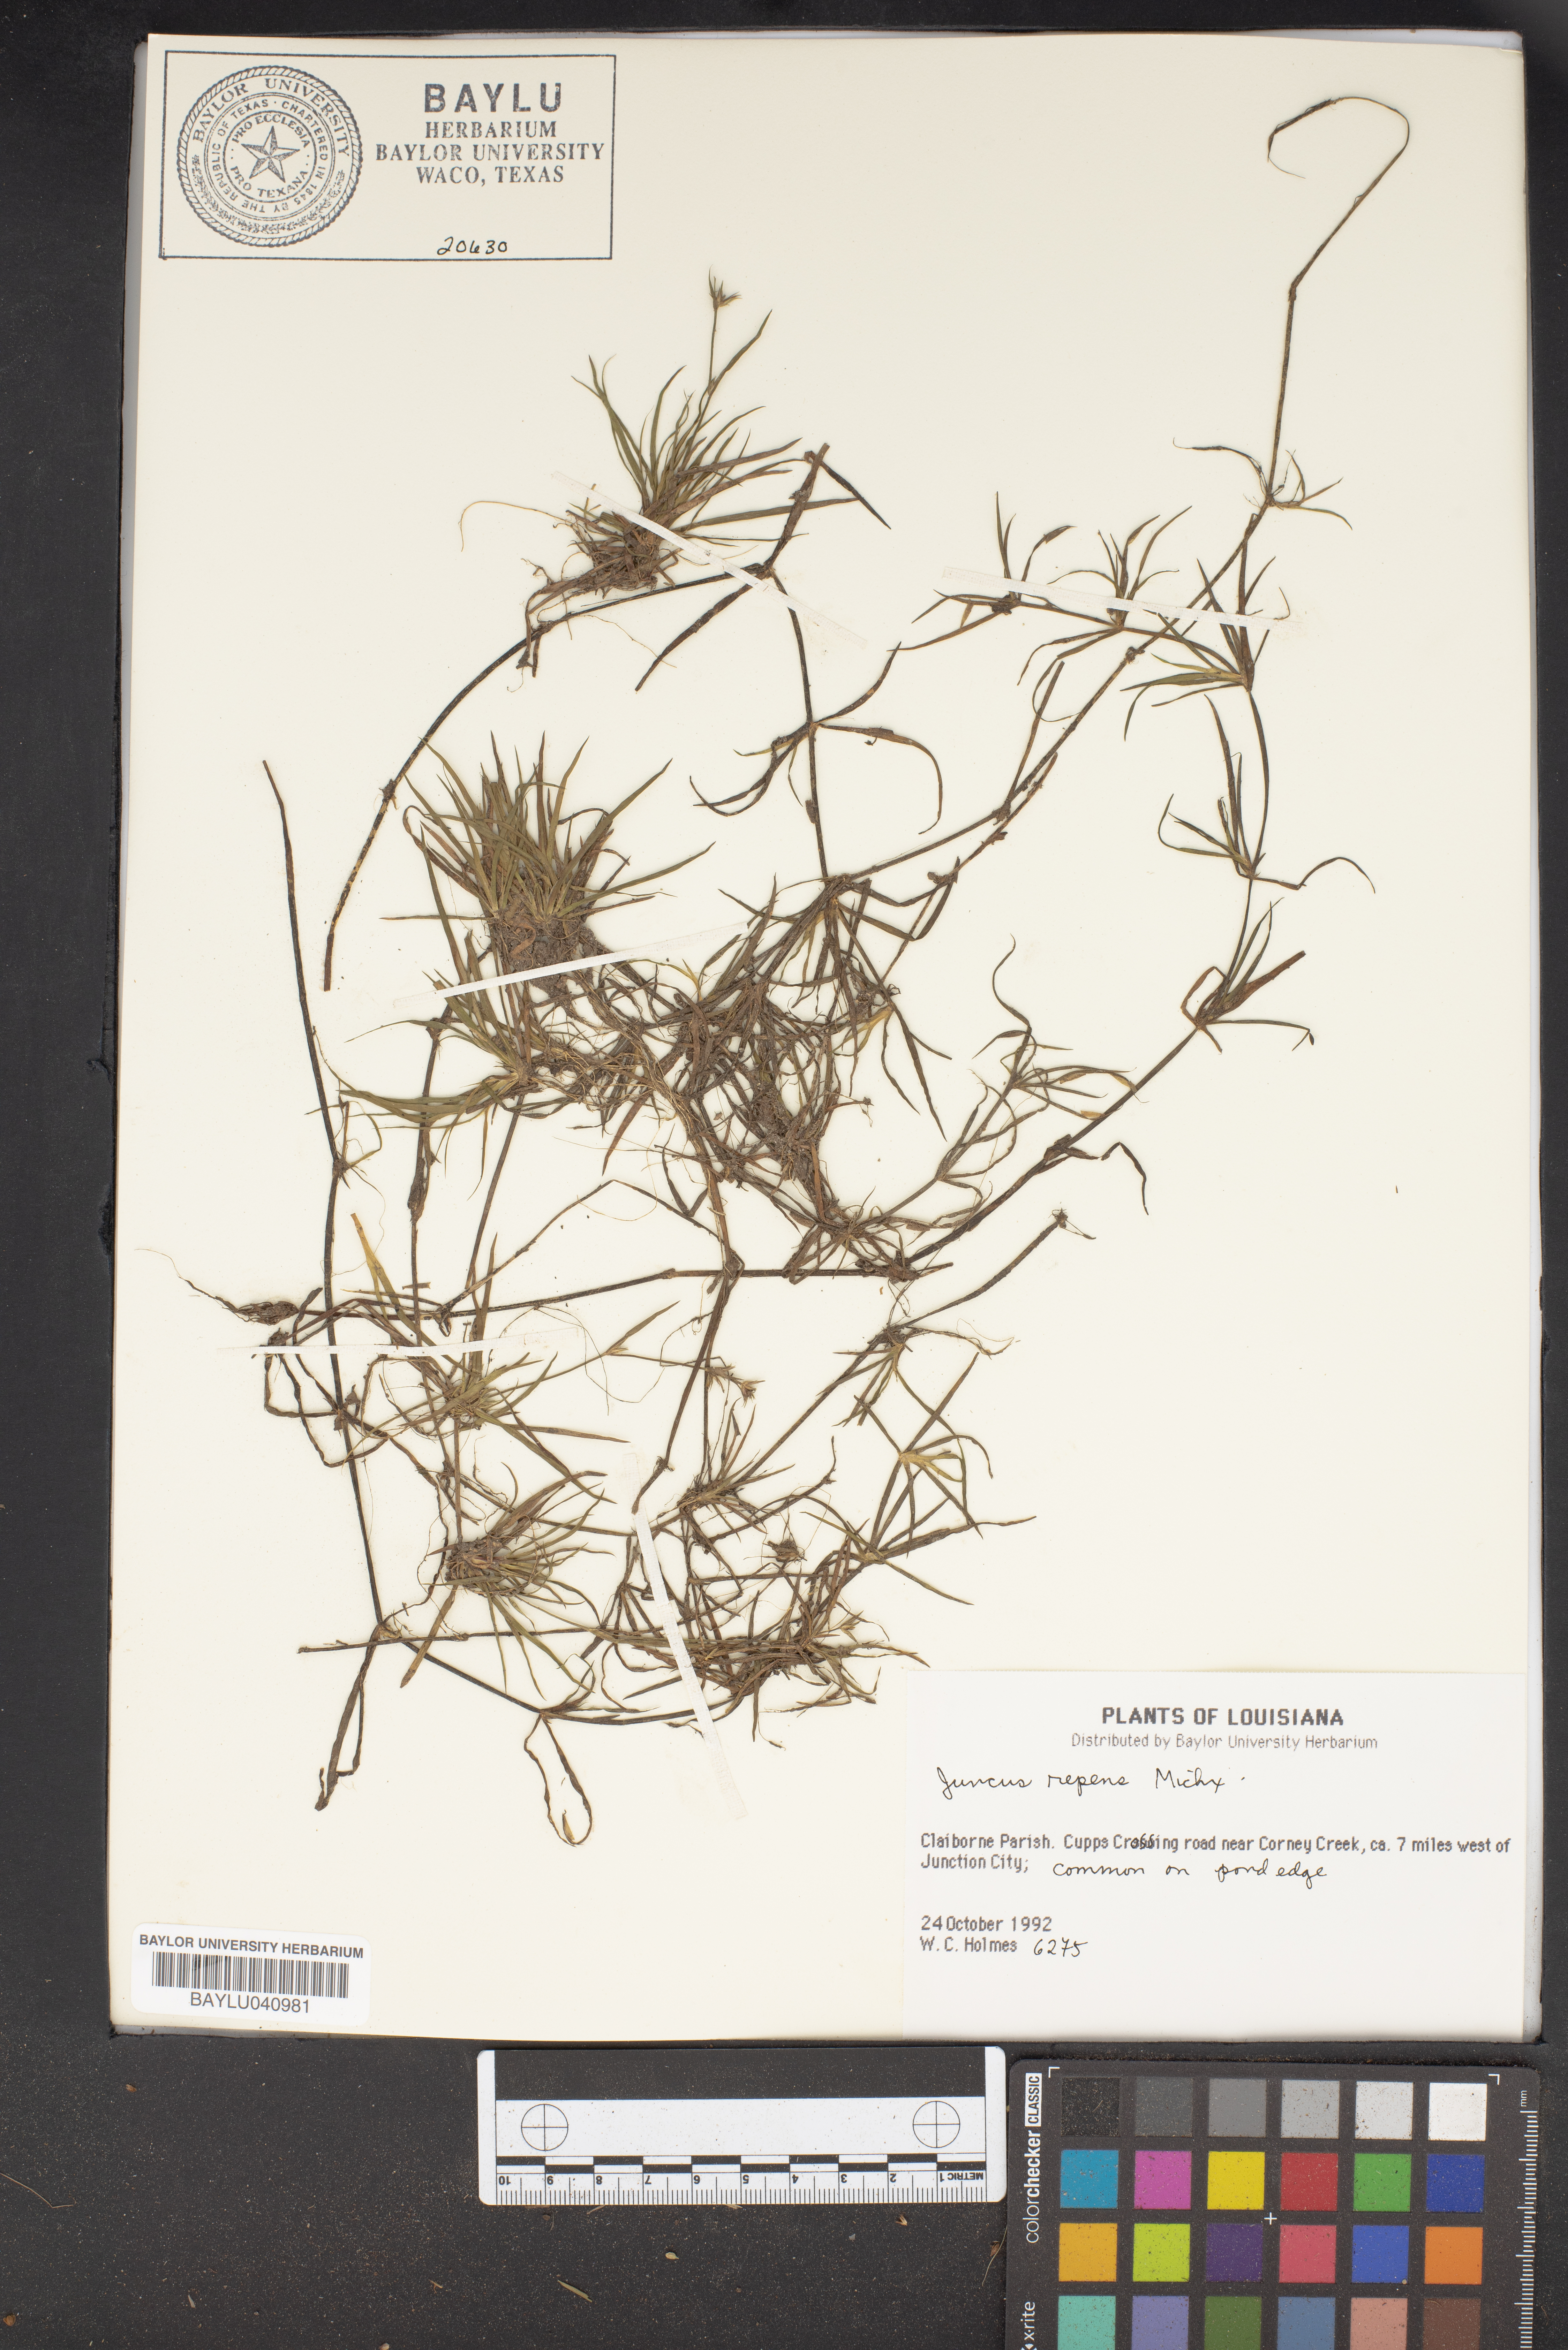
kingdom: Plantae
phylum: Tracheophyta
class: Liliopsida
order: Poales
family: Juncaceae
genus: Juncus
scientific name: Juncus repens
